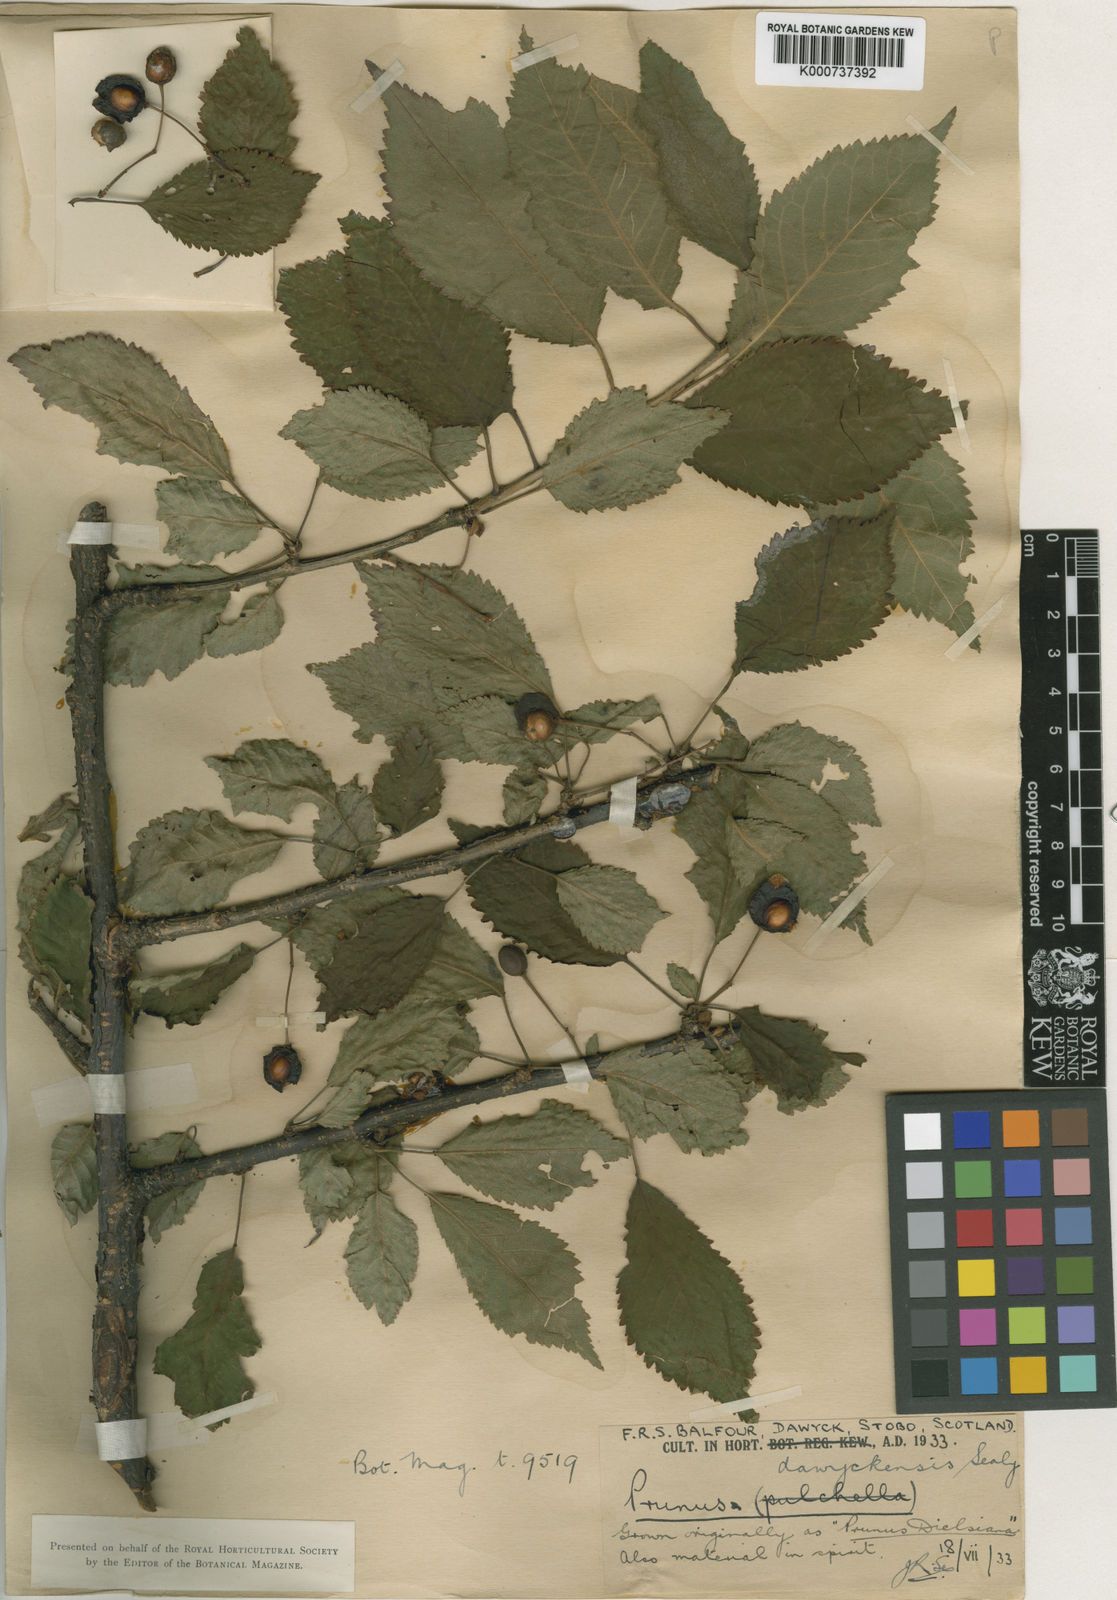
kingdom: Plantae
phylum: Tracheophyta
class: Magnoliopsida
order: Rosales
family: Rosaceae
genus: Prunus
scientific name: Prunus dawyckensis
